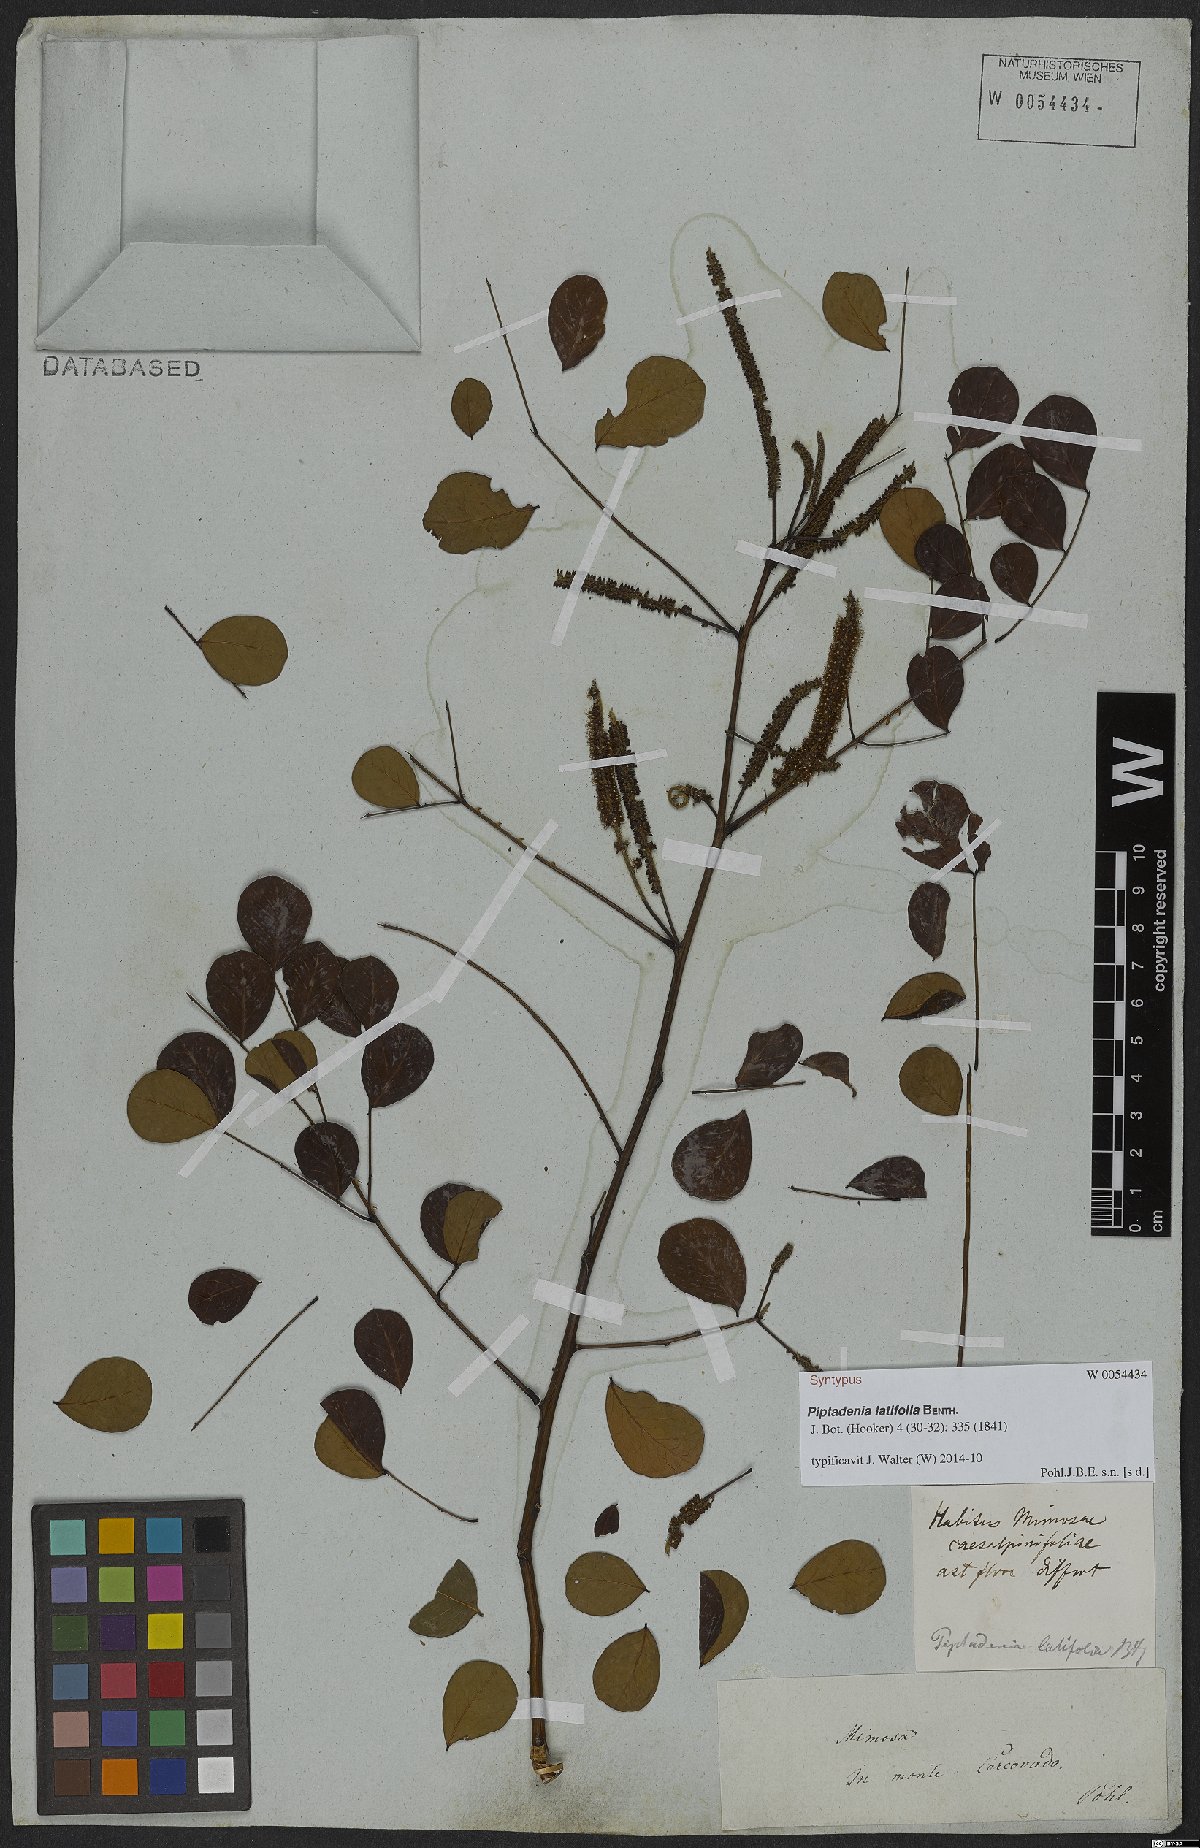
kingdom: Plantae
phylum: Tracheophyta
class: Magnoliopsida
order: Fabales
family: Fabaceae
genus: Piptadenia
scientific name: Piptadenia adiantoides
